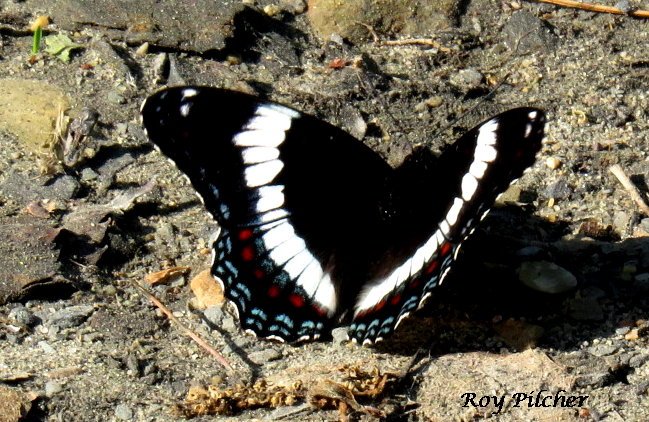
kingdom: Animalia
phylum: Arthropoda
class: Insecta
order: Lepidoptera
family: Nymphalidae
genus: Limenitis
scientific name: Limenitis arthemis
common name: Red-spotted Admiral
